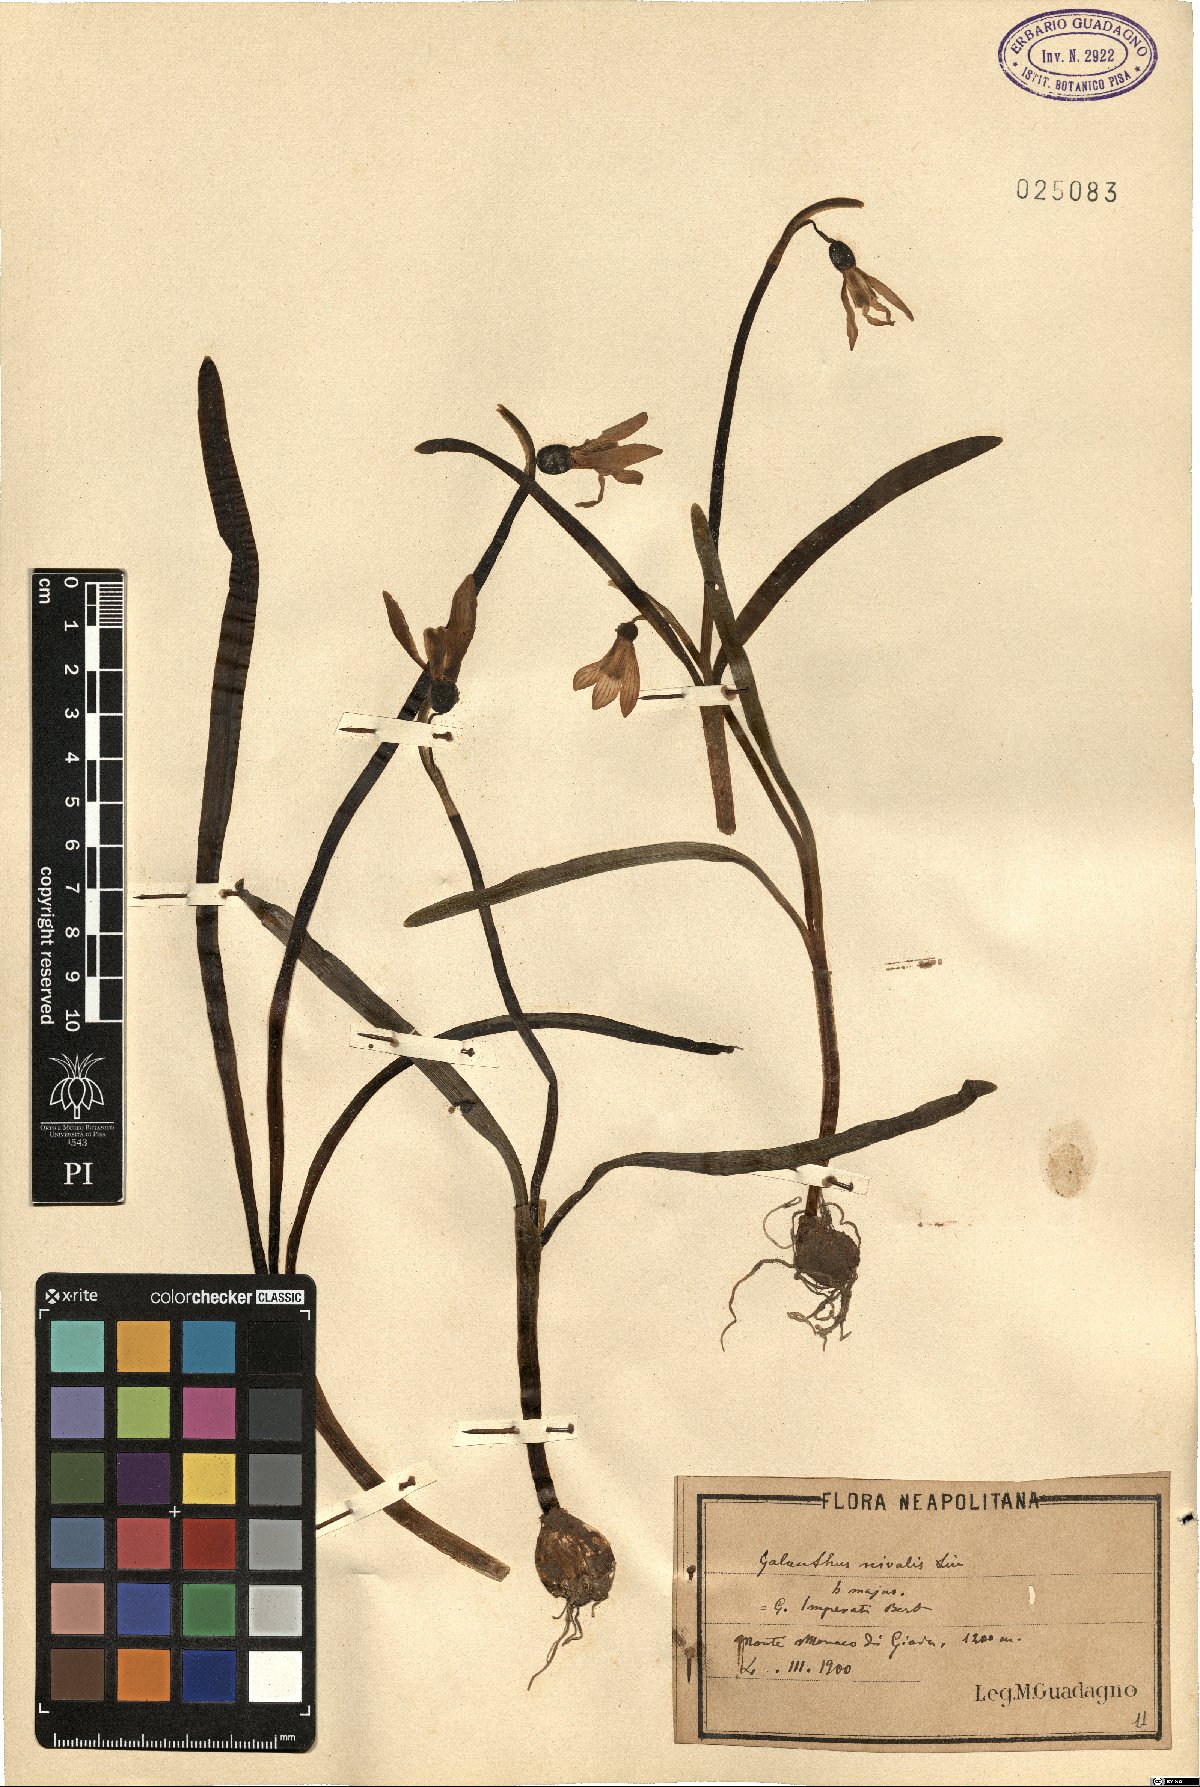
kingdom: Plantae
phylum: Tracheophyta
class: Liliopsida
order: Asparagales
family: Amaryllidaceae
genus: Galanthus
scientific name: Galanthus nivalis
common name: Snowdrop
